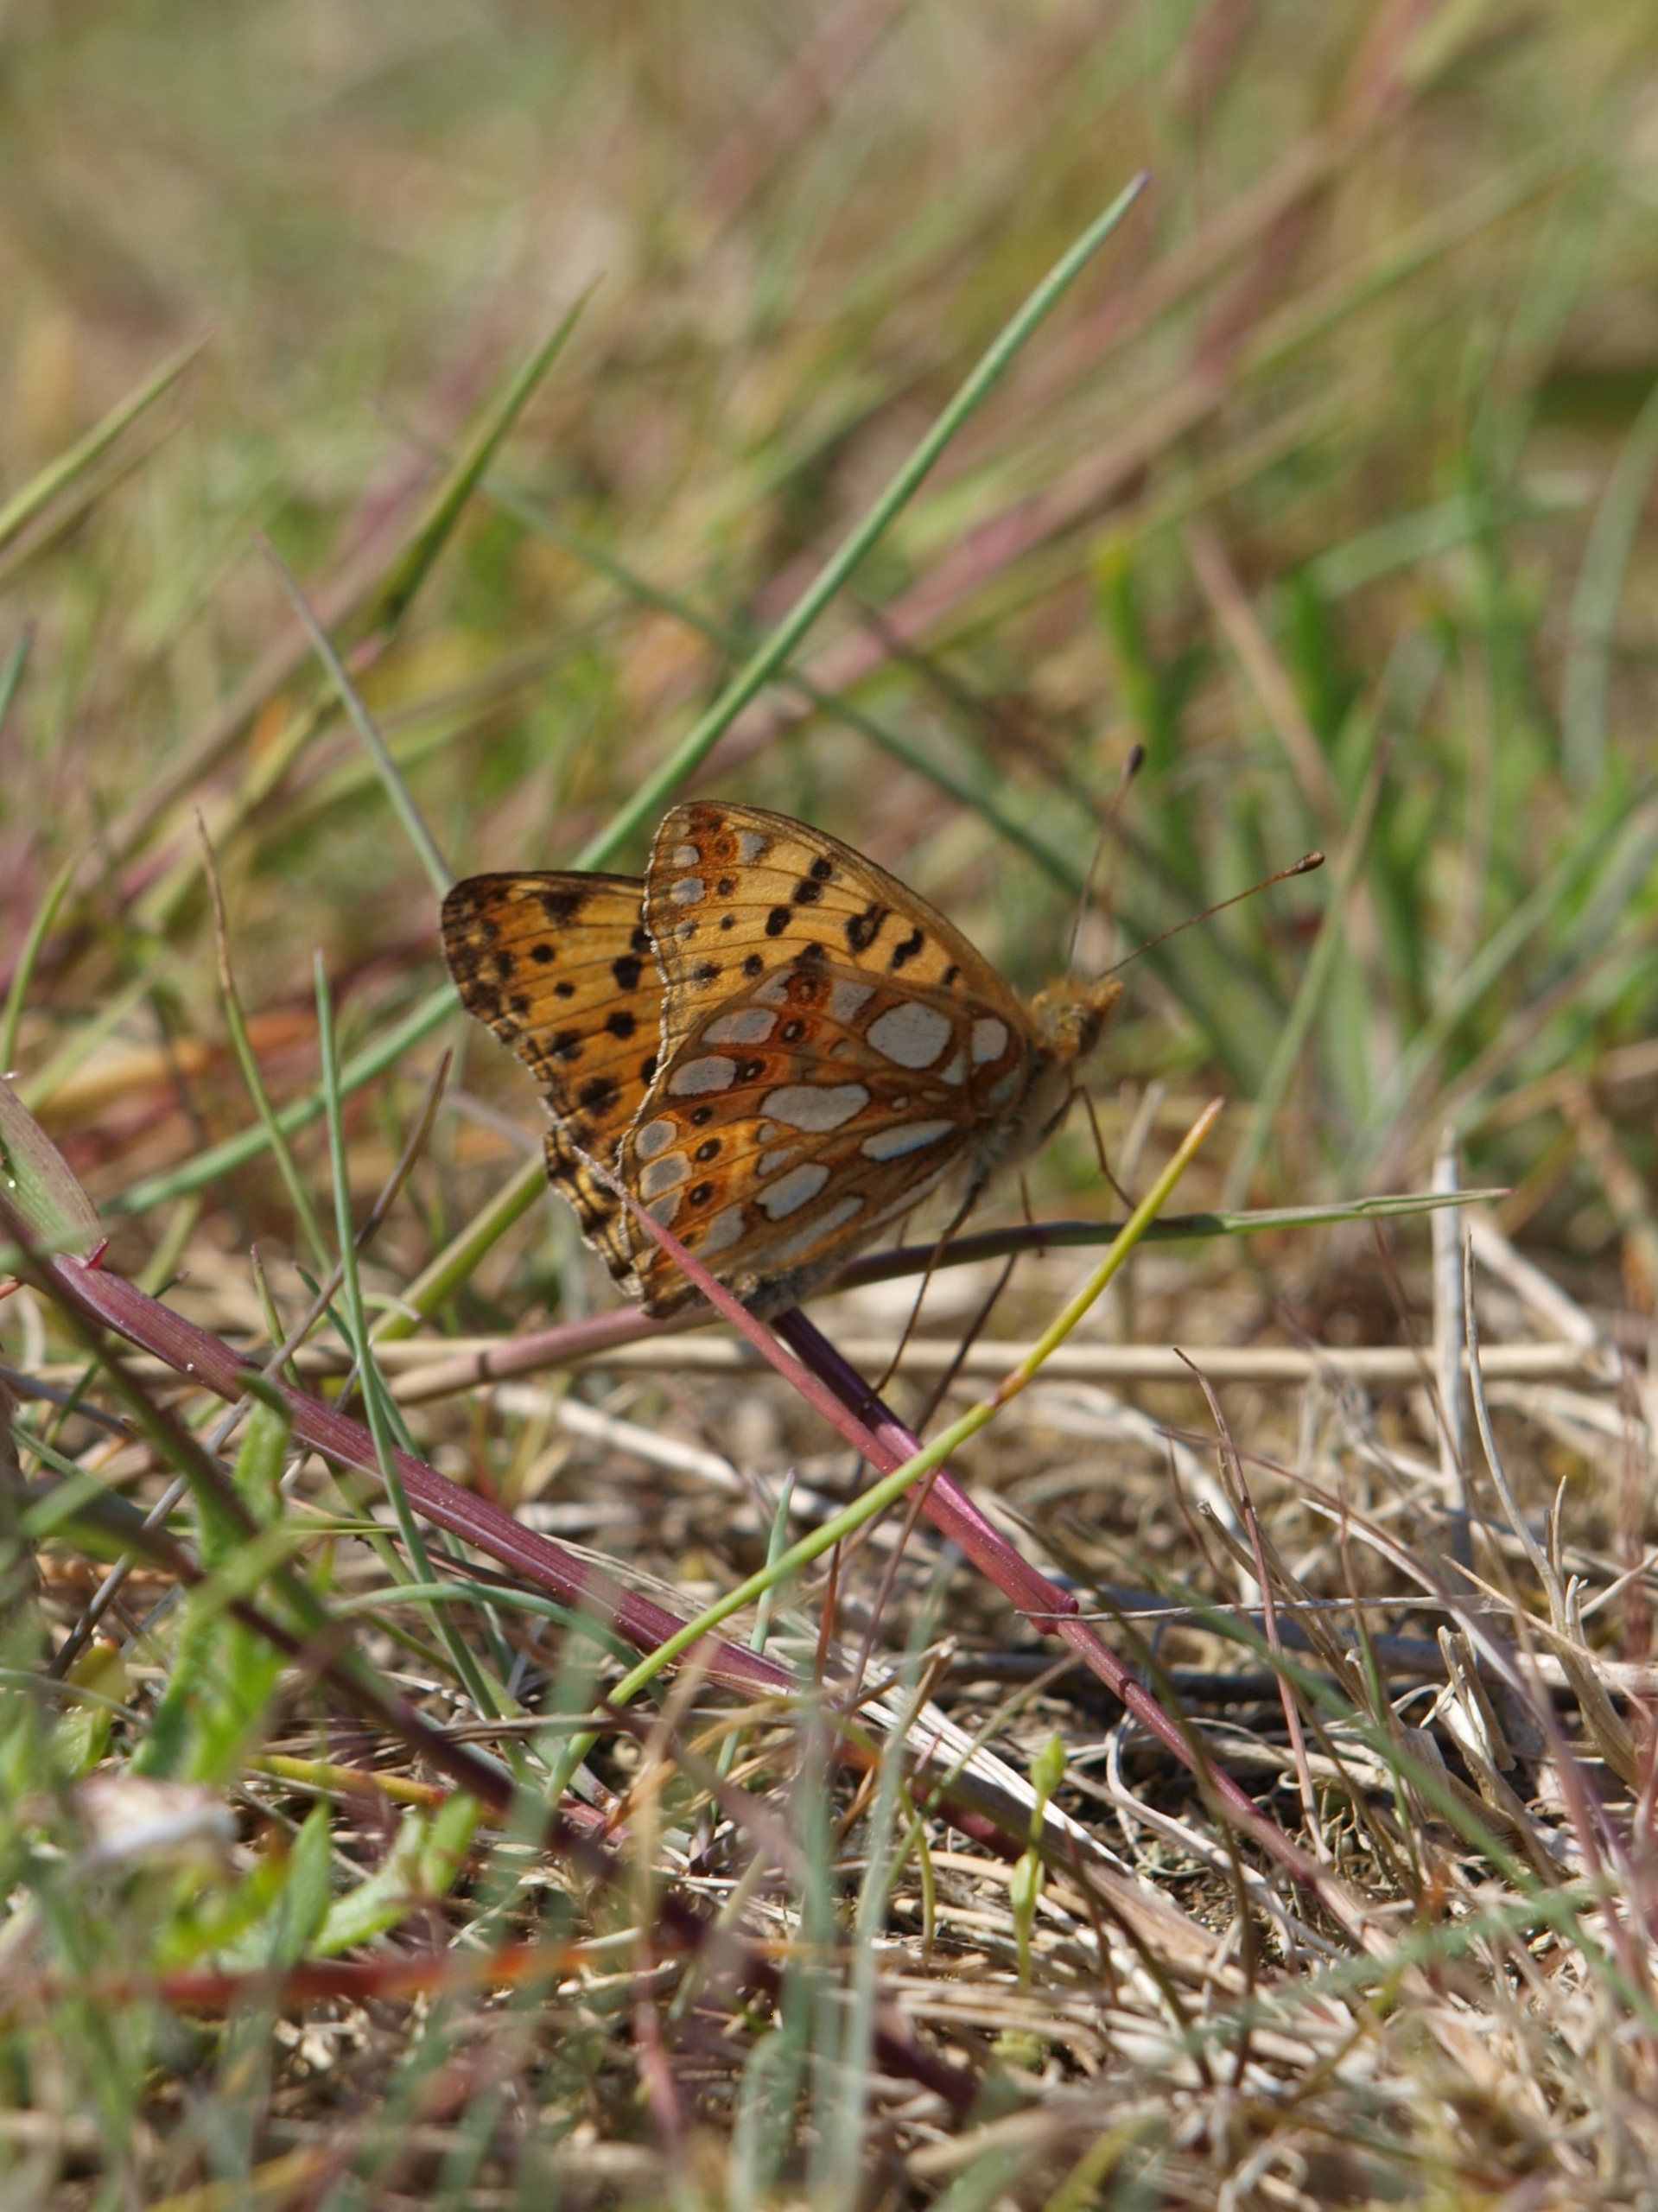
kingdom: Animalia
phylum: Arthropoda
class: Insecta
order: Lepidoptera
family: Nymphalidae
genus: Issoria
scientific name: Issoria lathonia
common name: Storplettet perlemorsommerfugl
